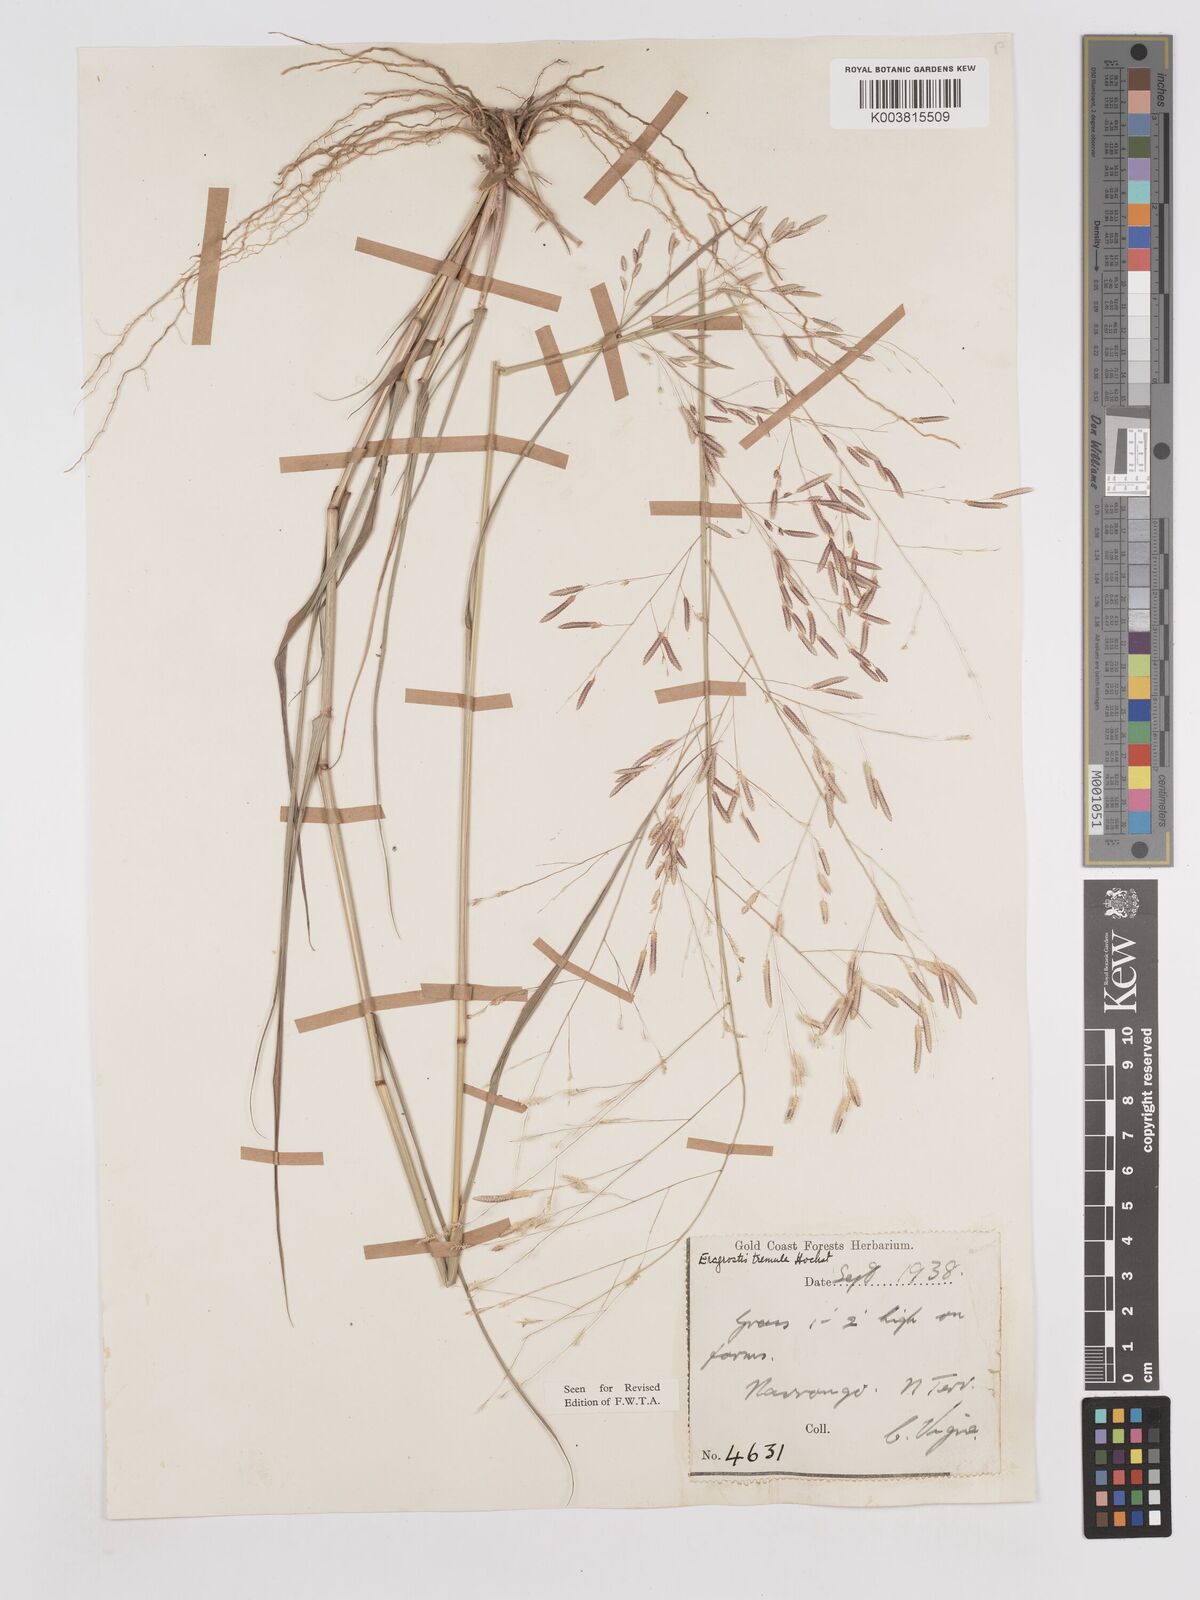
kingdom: Plantae
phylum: Tracheophyta
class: Liliopsida
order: Poales
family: Poaceae
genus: Eragrostis
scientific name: Eragrostis tremula
